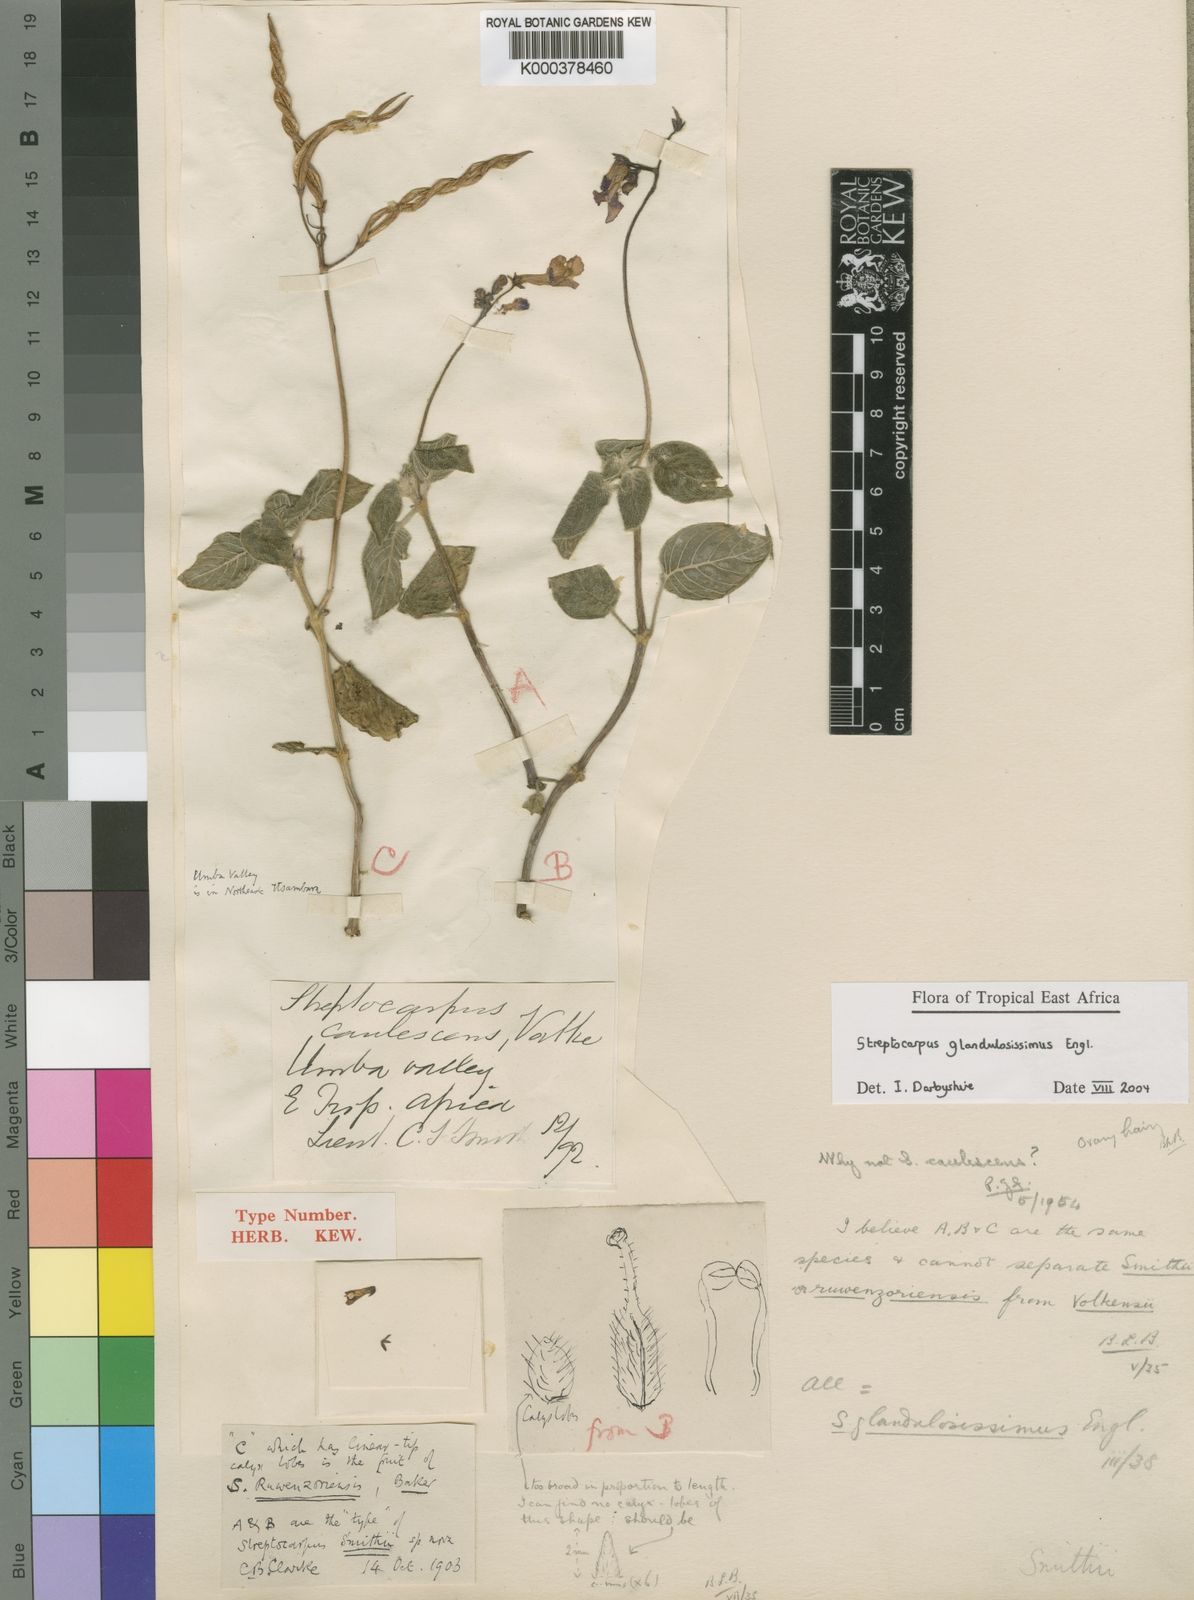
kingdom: Plantae
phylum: Tracheophyta
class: Magnoliopsida
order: Lamiales
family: Gesneriaceae
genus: Streptocarpus
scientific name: Streptocarpus glandulosissimus
